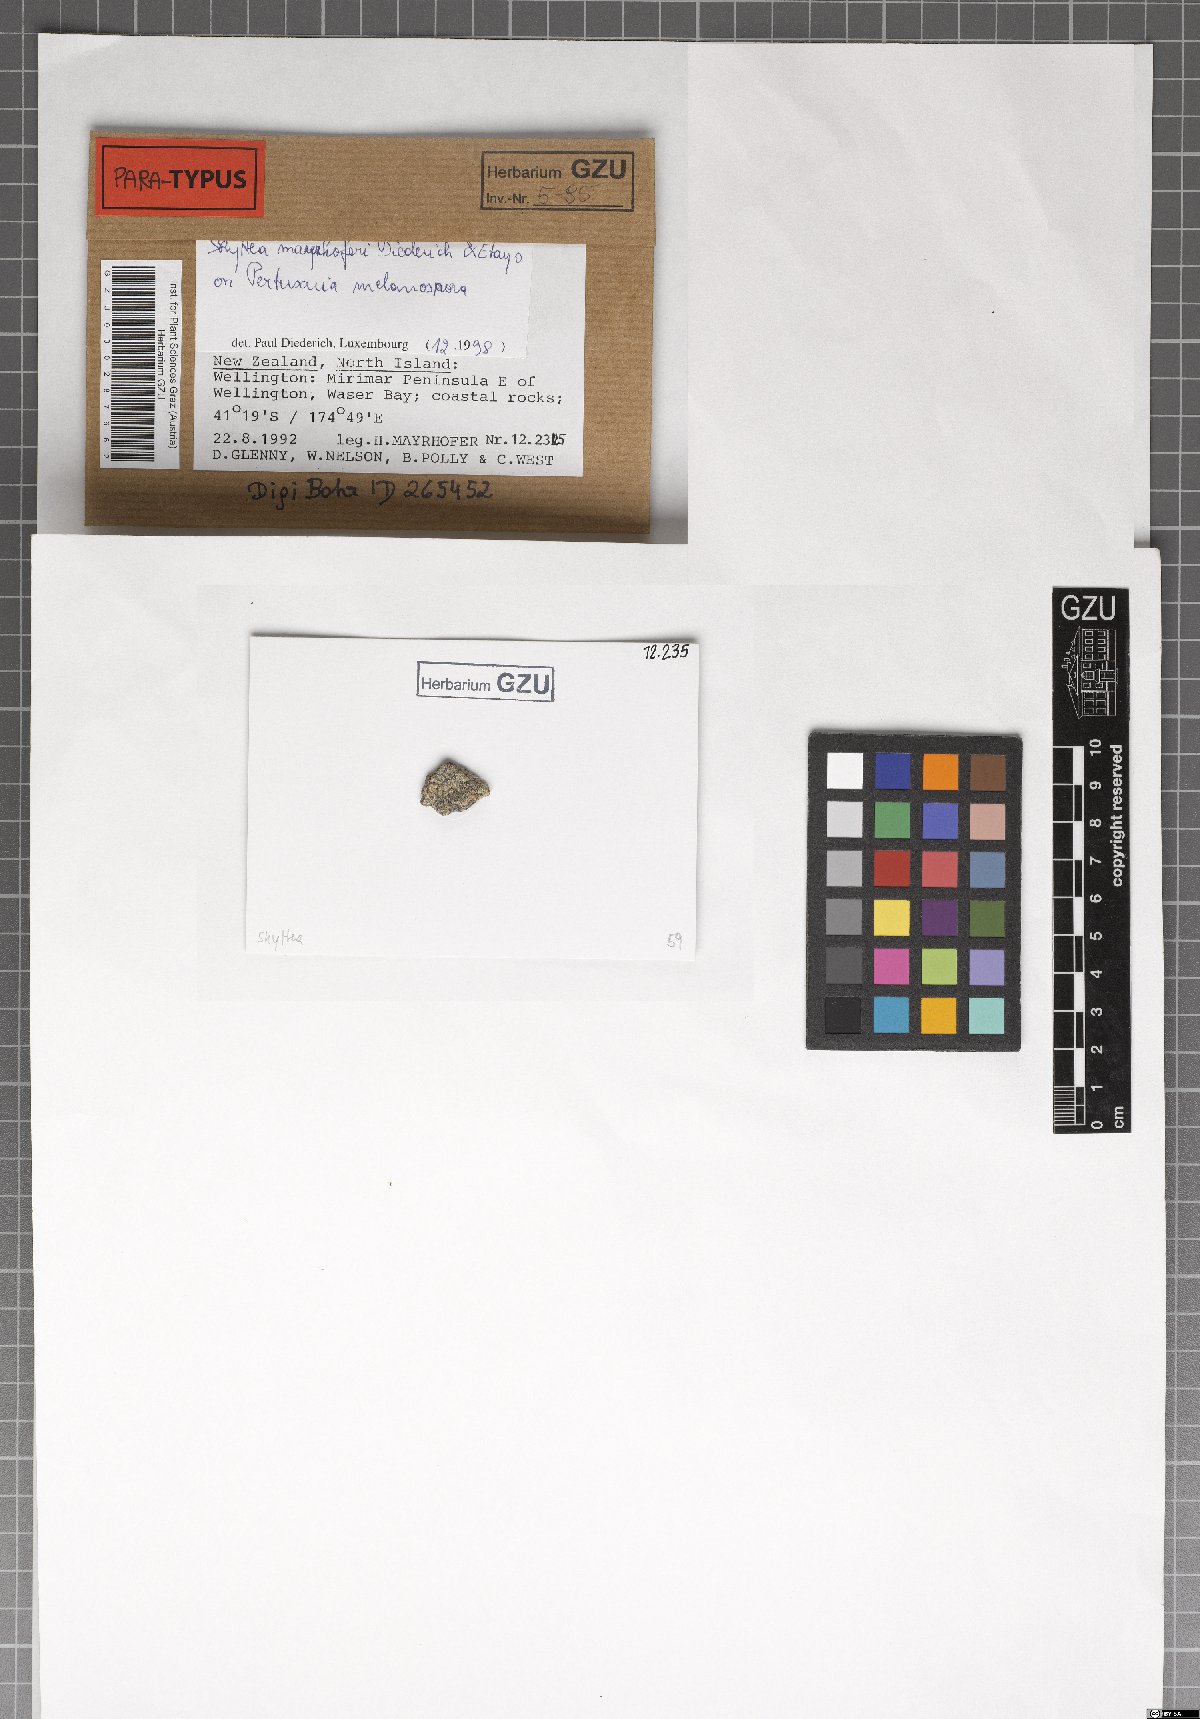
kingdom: Fungi
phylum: Ascomycota
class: Leotiomycetes
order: Helotiales
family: Cordieritidaceae
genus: Skyttea
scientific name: Skyttea mayrhoferi
